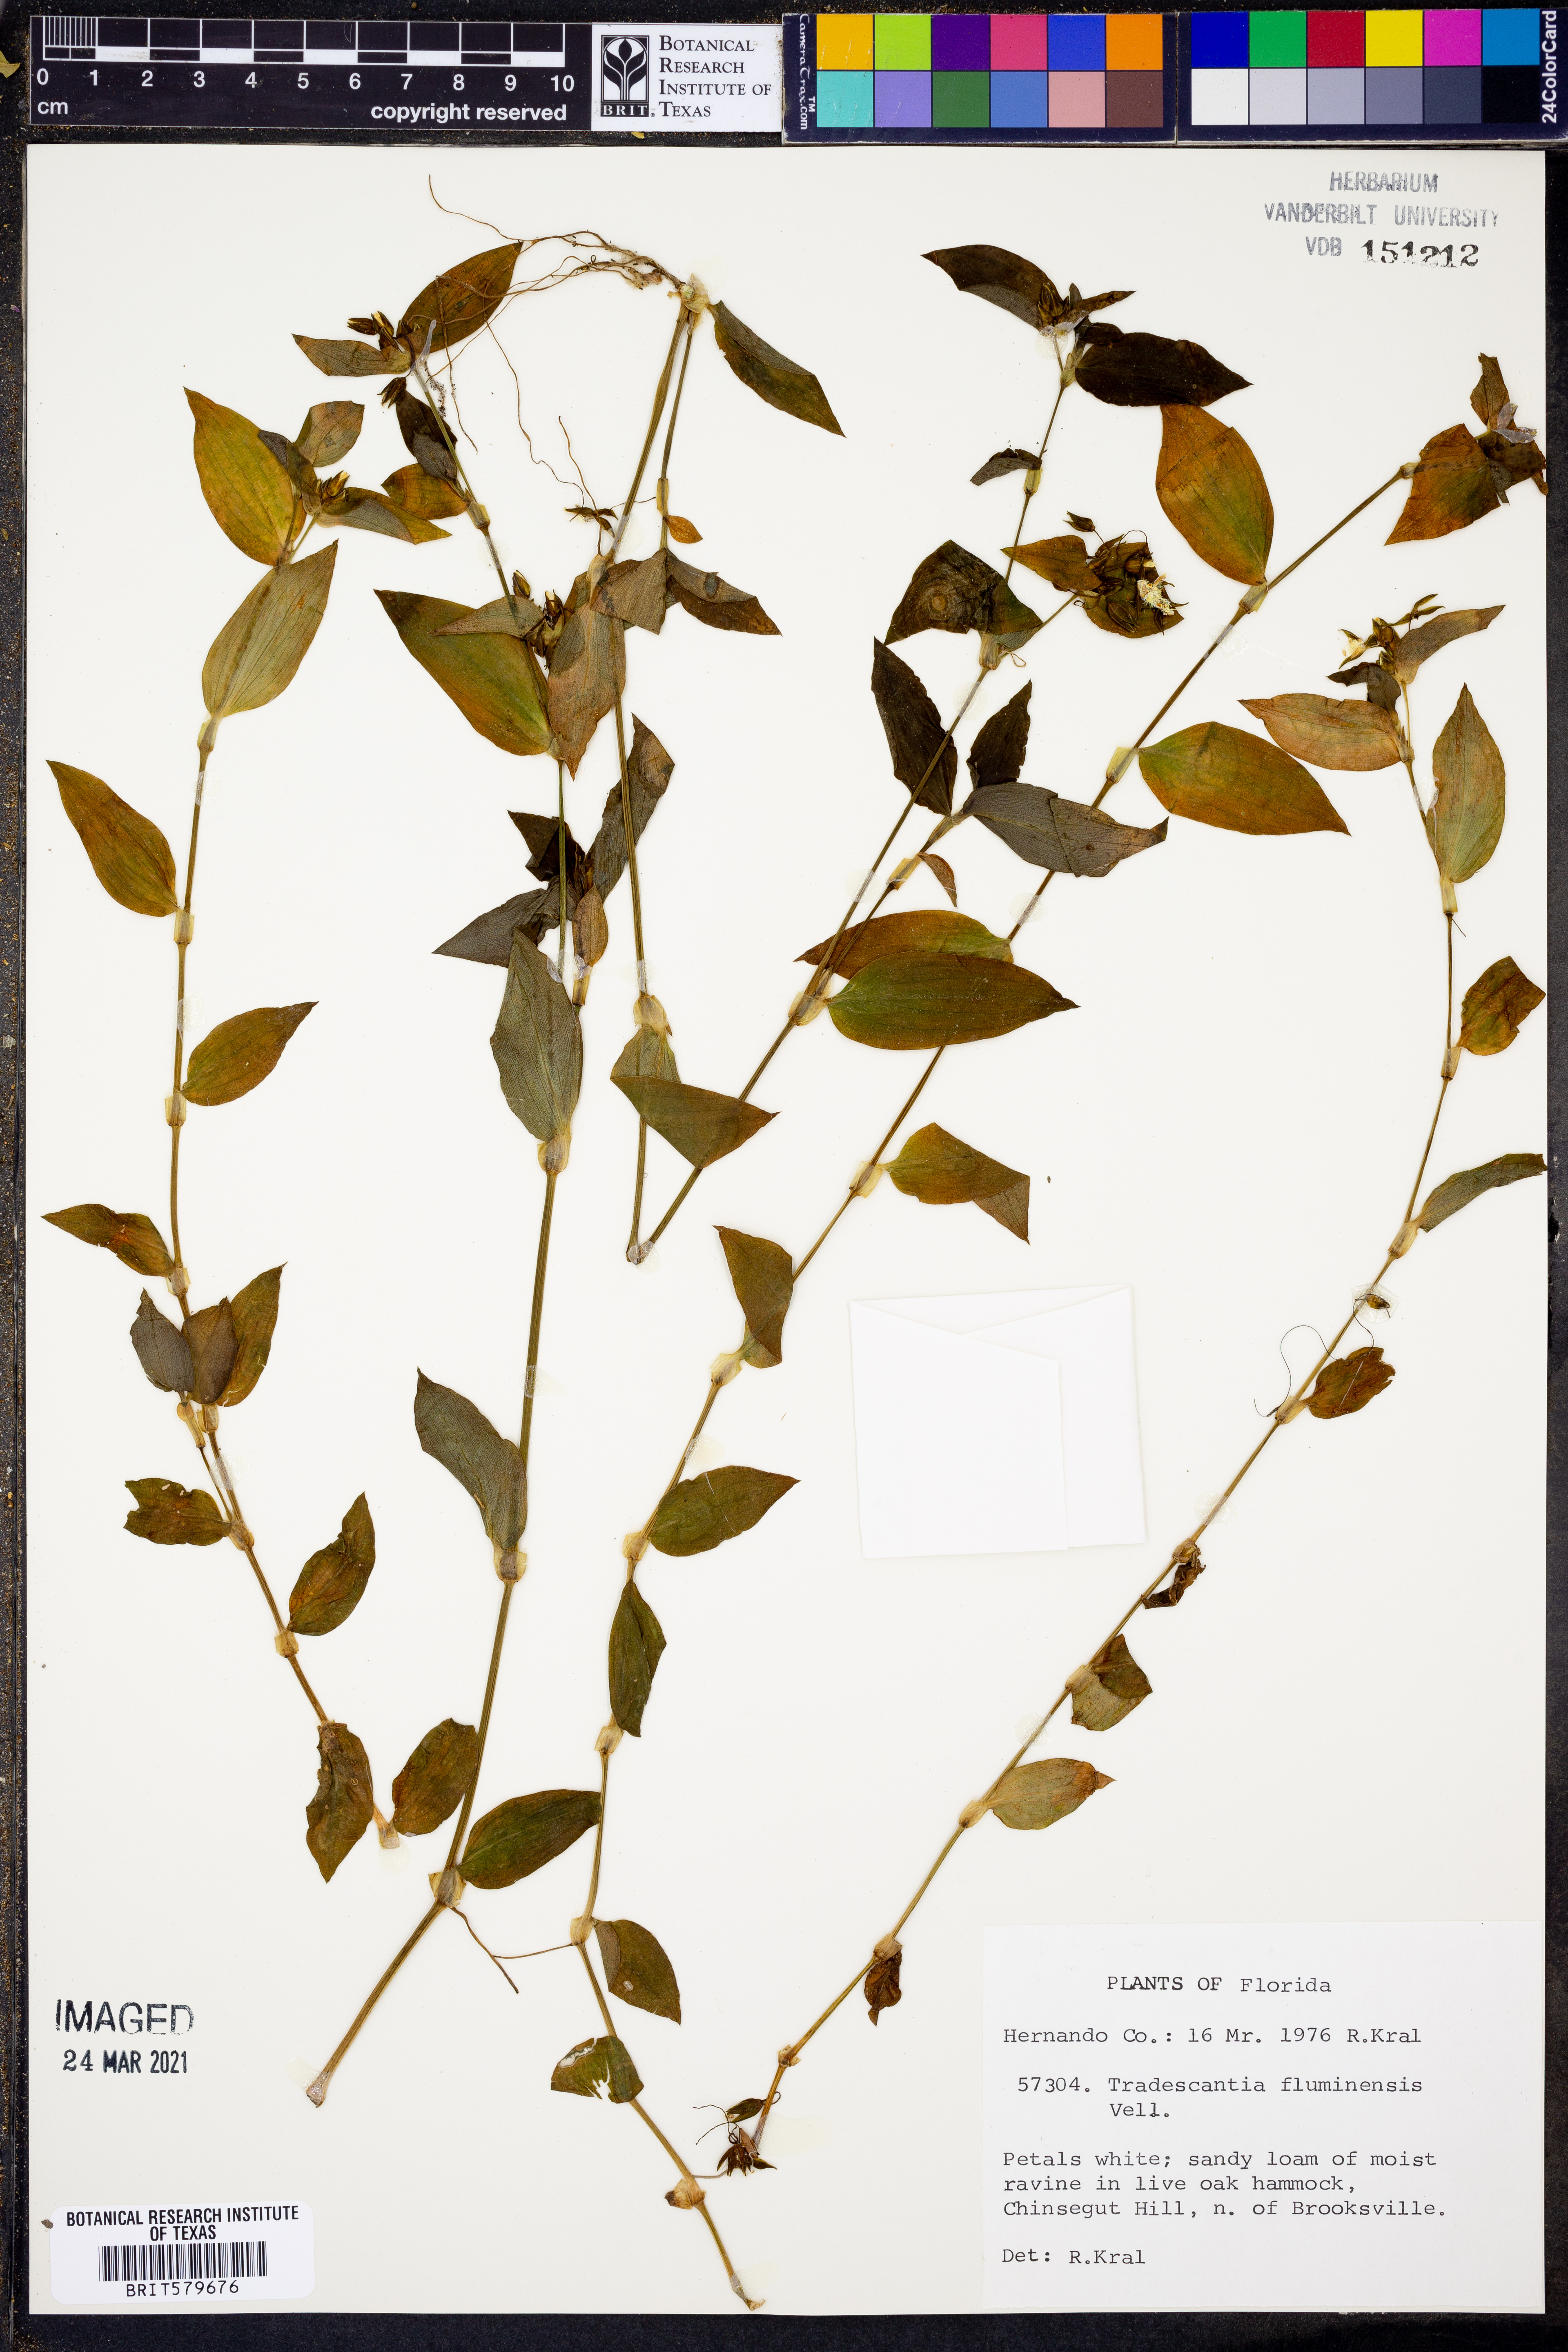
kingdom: Plantae
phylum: Tracheophyta
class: Liliopsida
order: Commelinales
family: Commelinaceae
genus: Tradescantia
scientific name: Tradescantia fluminensis
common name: Wandering-jew
